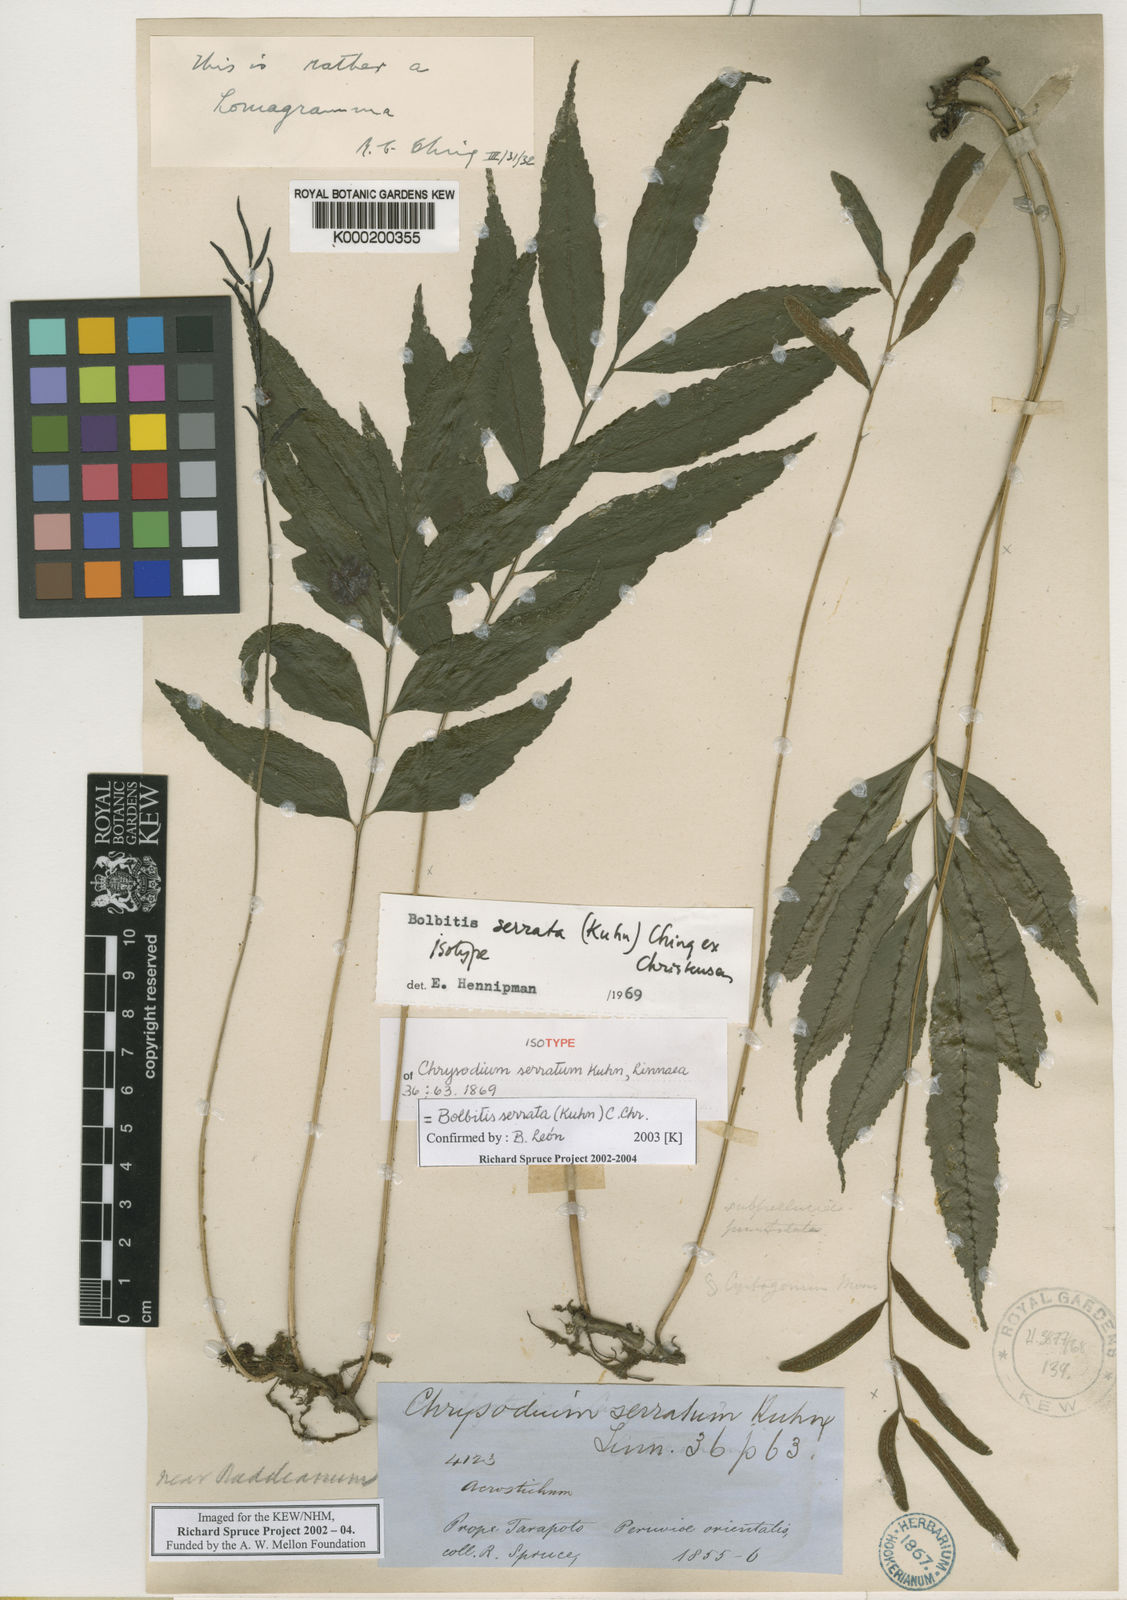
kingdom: Plantae
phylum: Tracheophyta
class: Polypodiopsida
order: Polypodiales
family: Dryopteridaceae
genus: Bolbitis
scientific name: Bolbitis serrata
